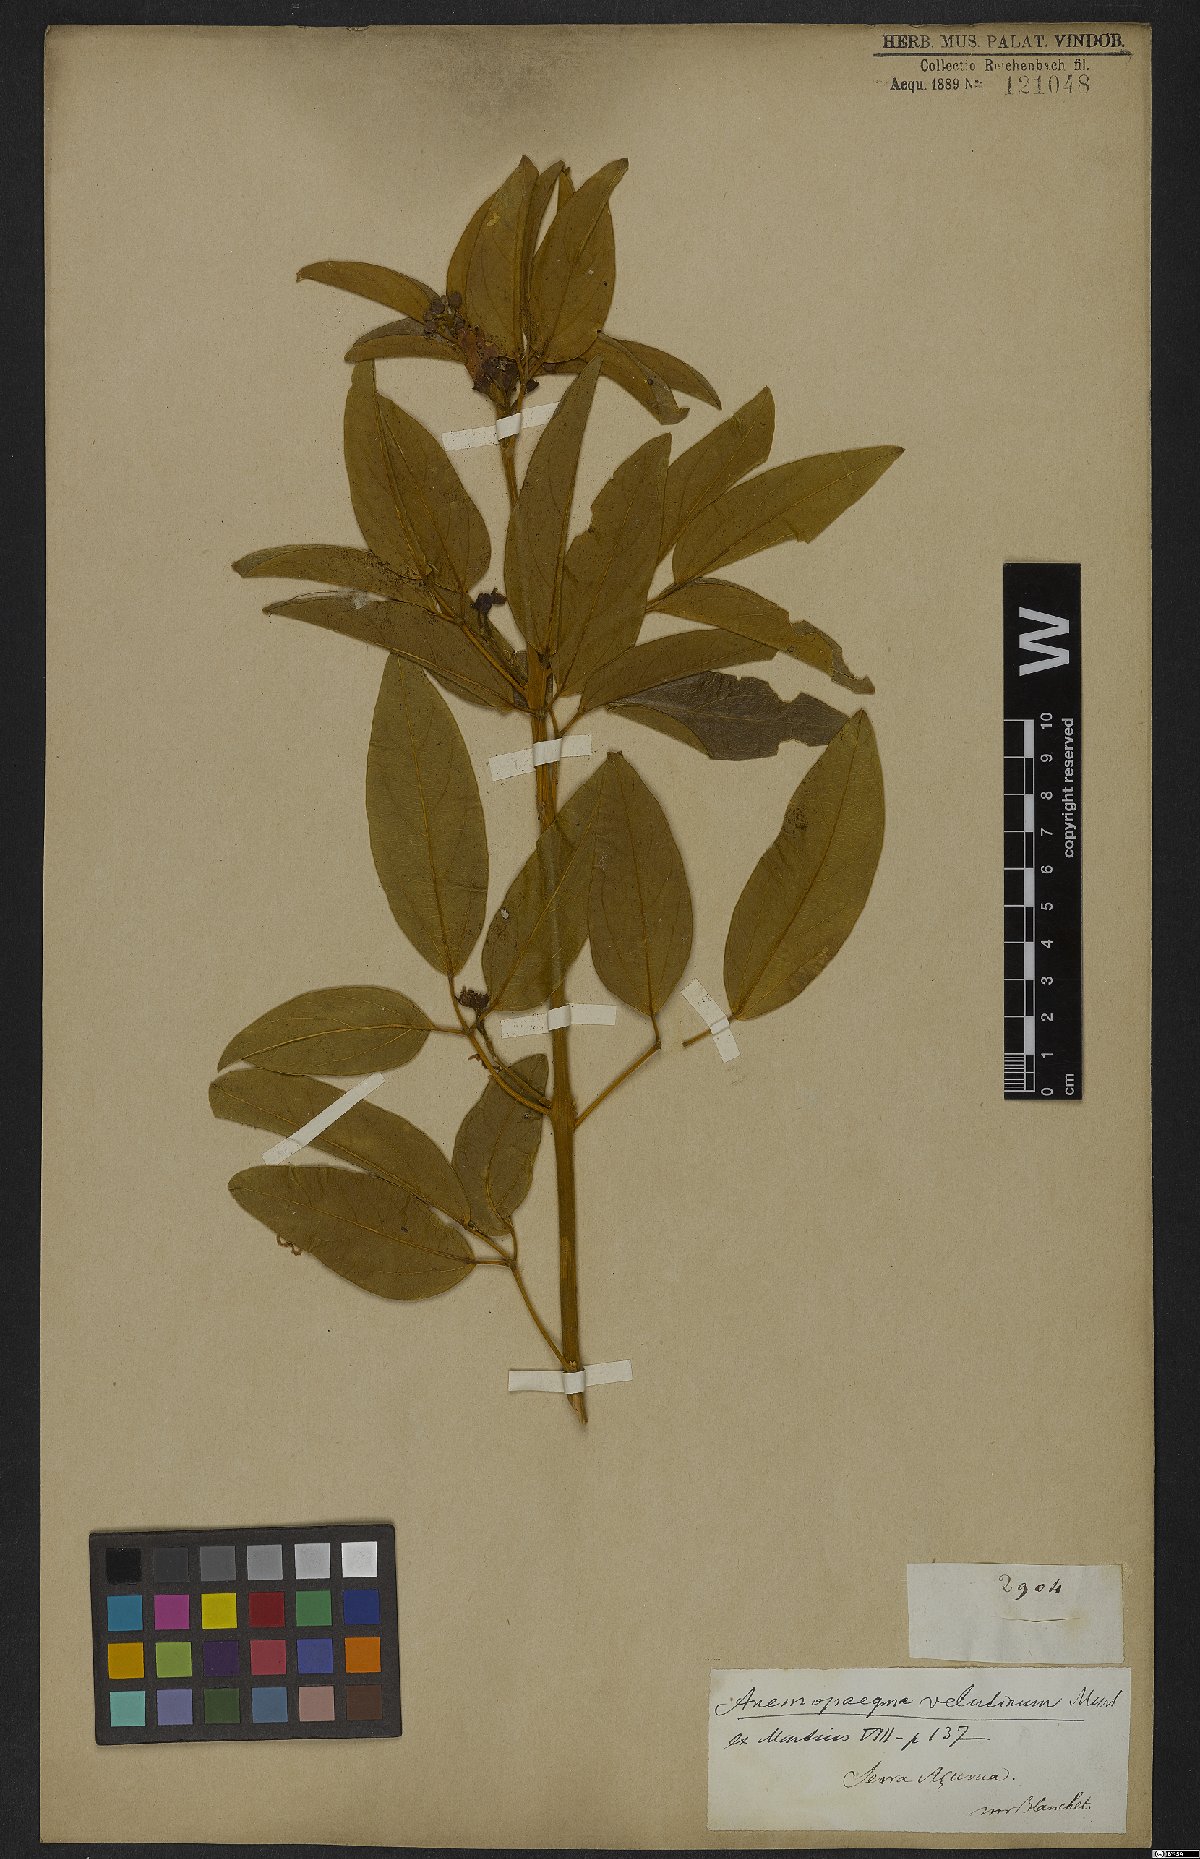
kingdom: Plantae
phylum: Tracheophyta
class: Magnoliopsida
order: Lamiales
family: Bignoniaceae
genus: Anemopaegma
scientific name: Anemopaegma velutinum
